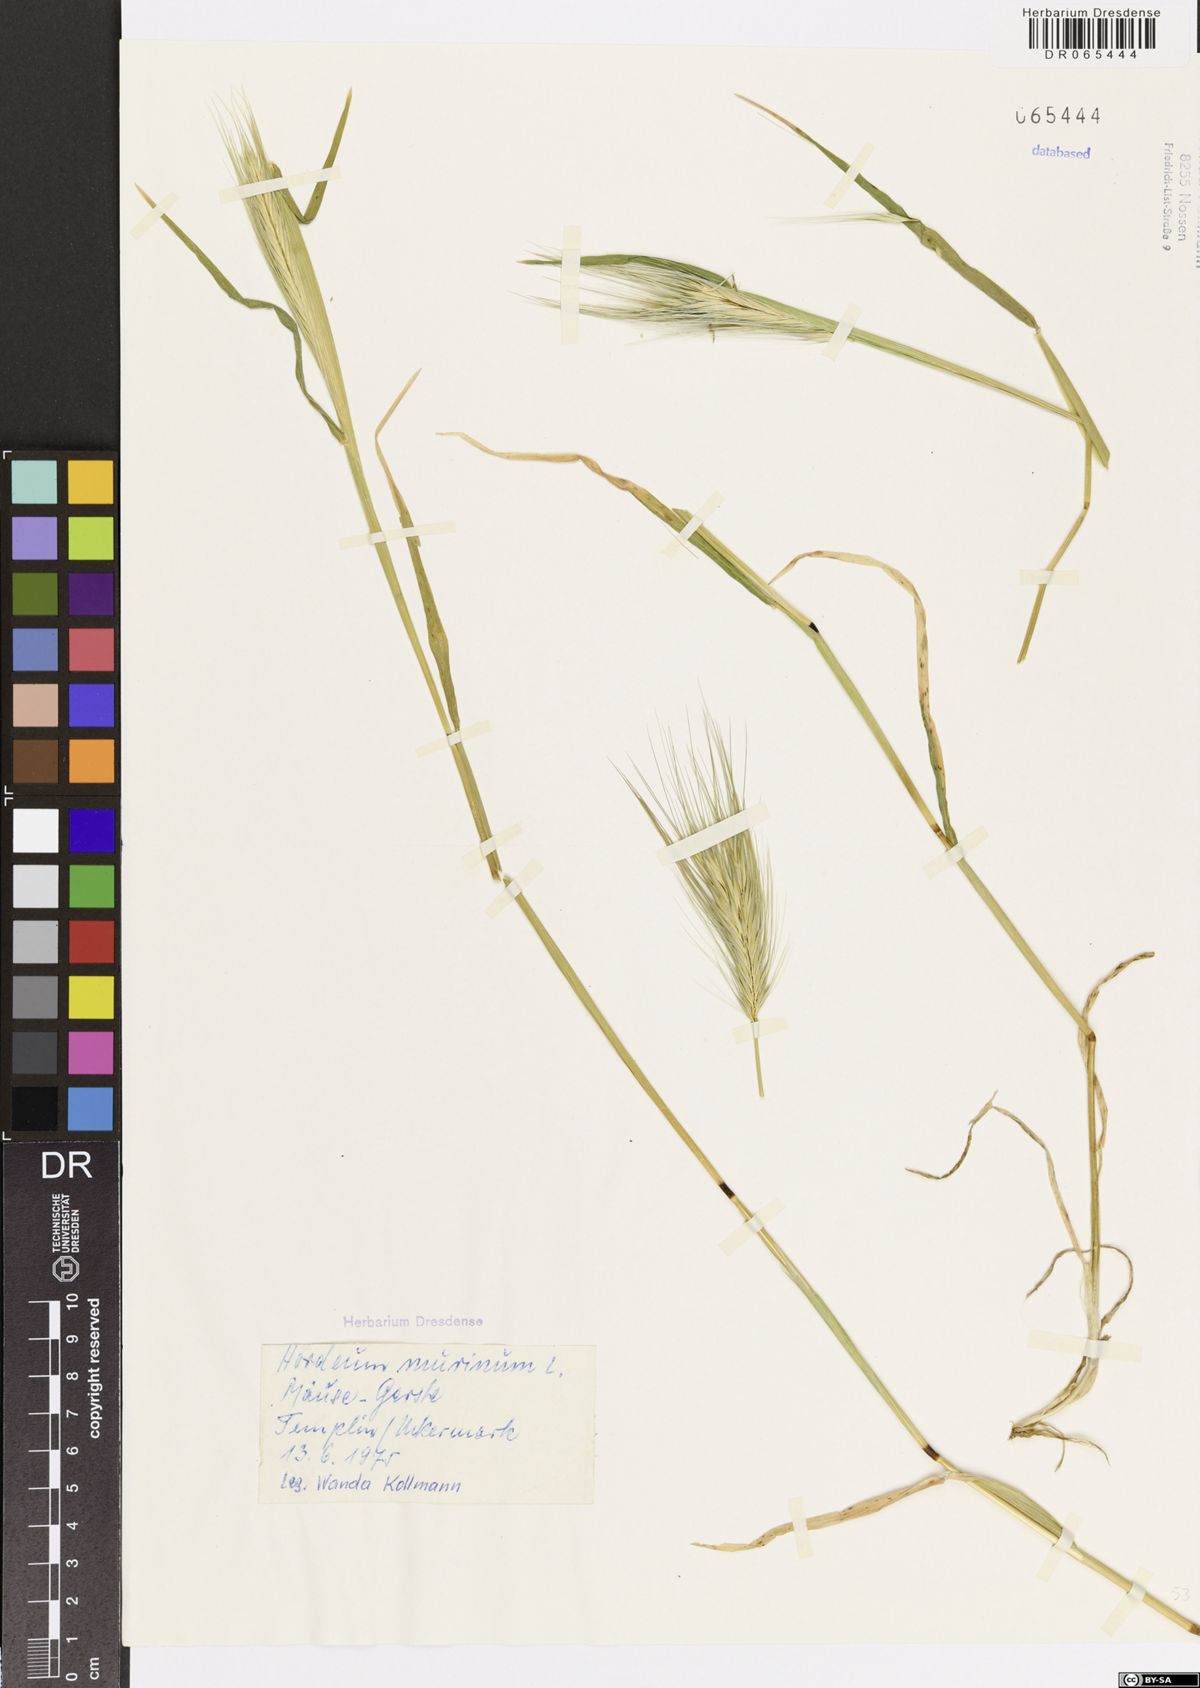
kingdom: Plantae
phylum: Tracheophyta
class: Liliopsida
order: Poales
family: Poaceae
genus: Hordeum
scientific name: Hordeum murinum
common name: Wall barley
